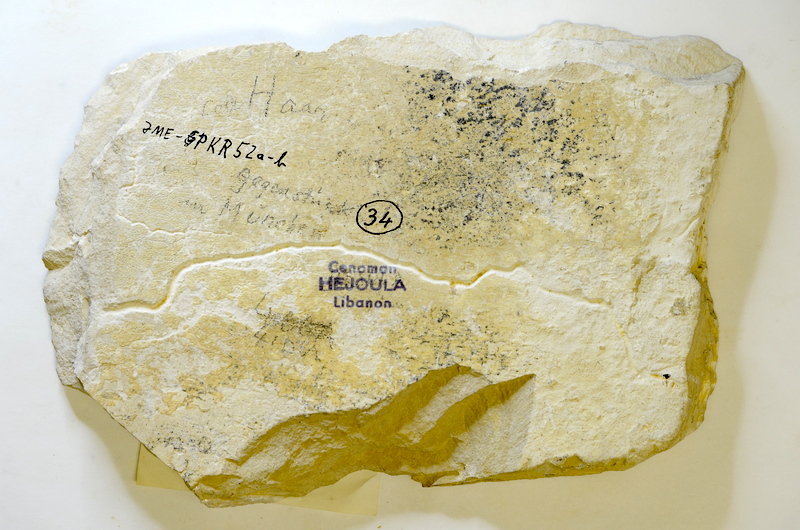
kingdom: Animalia
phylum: Chordata
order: Clupeiformes
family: Clupeidae
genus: Clupea
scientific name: Clupea harengus
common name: Herring
